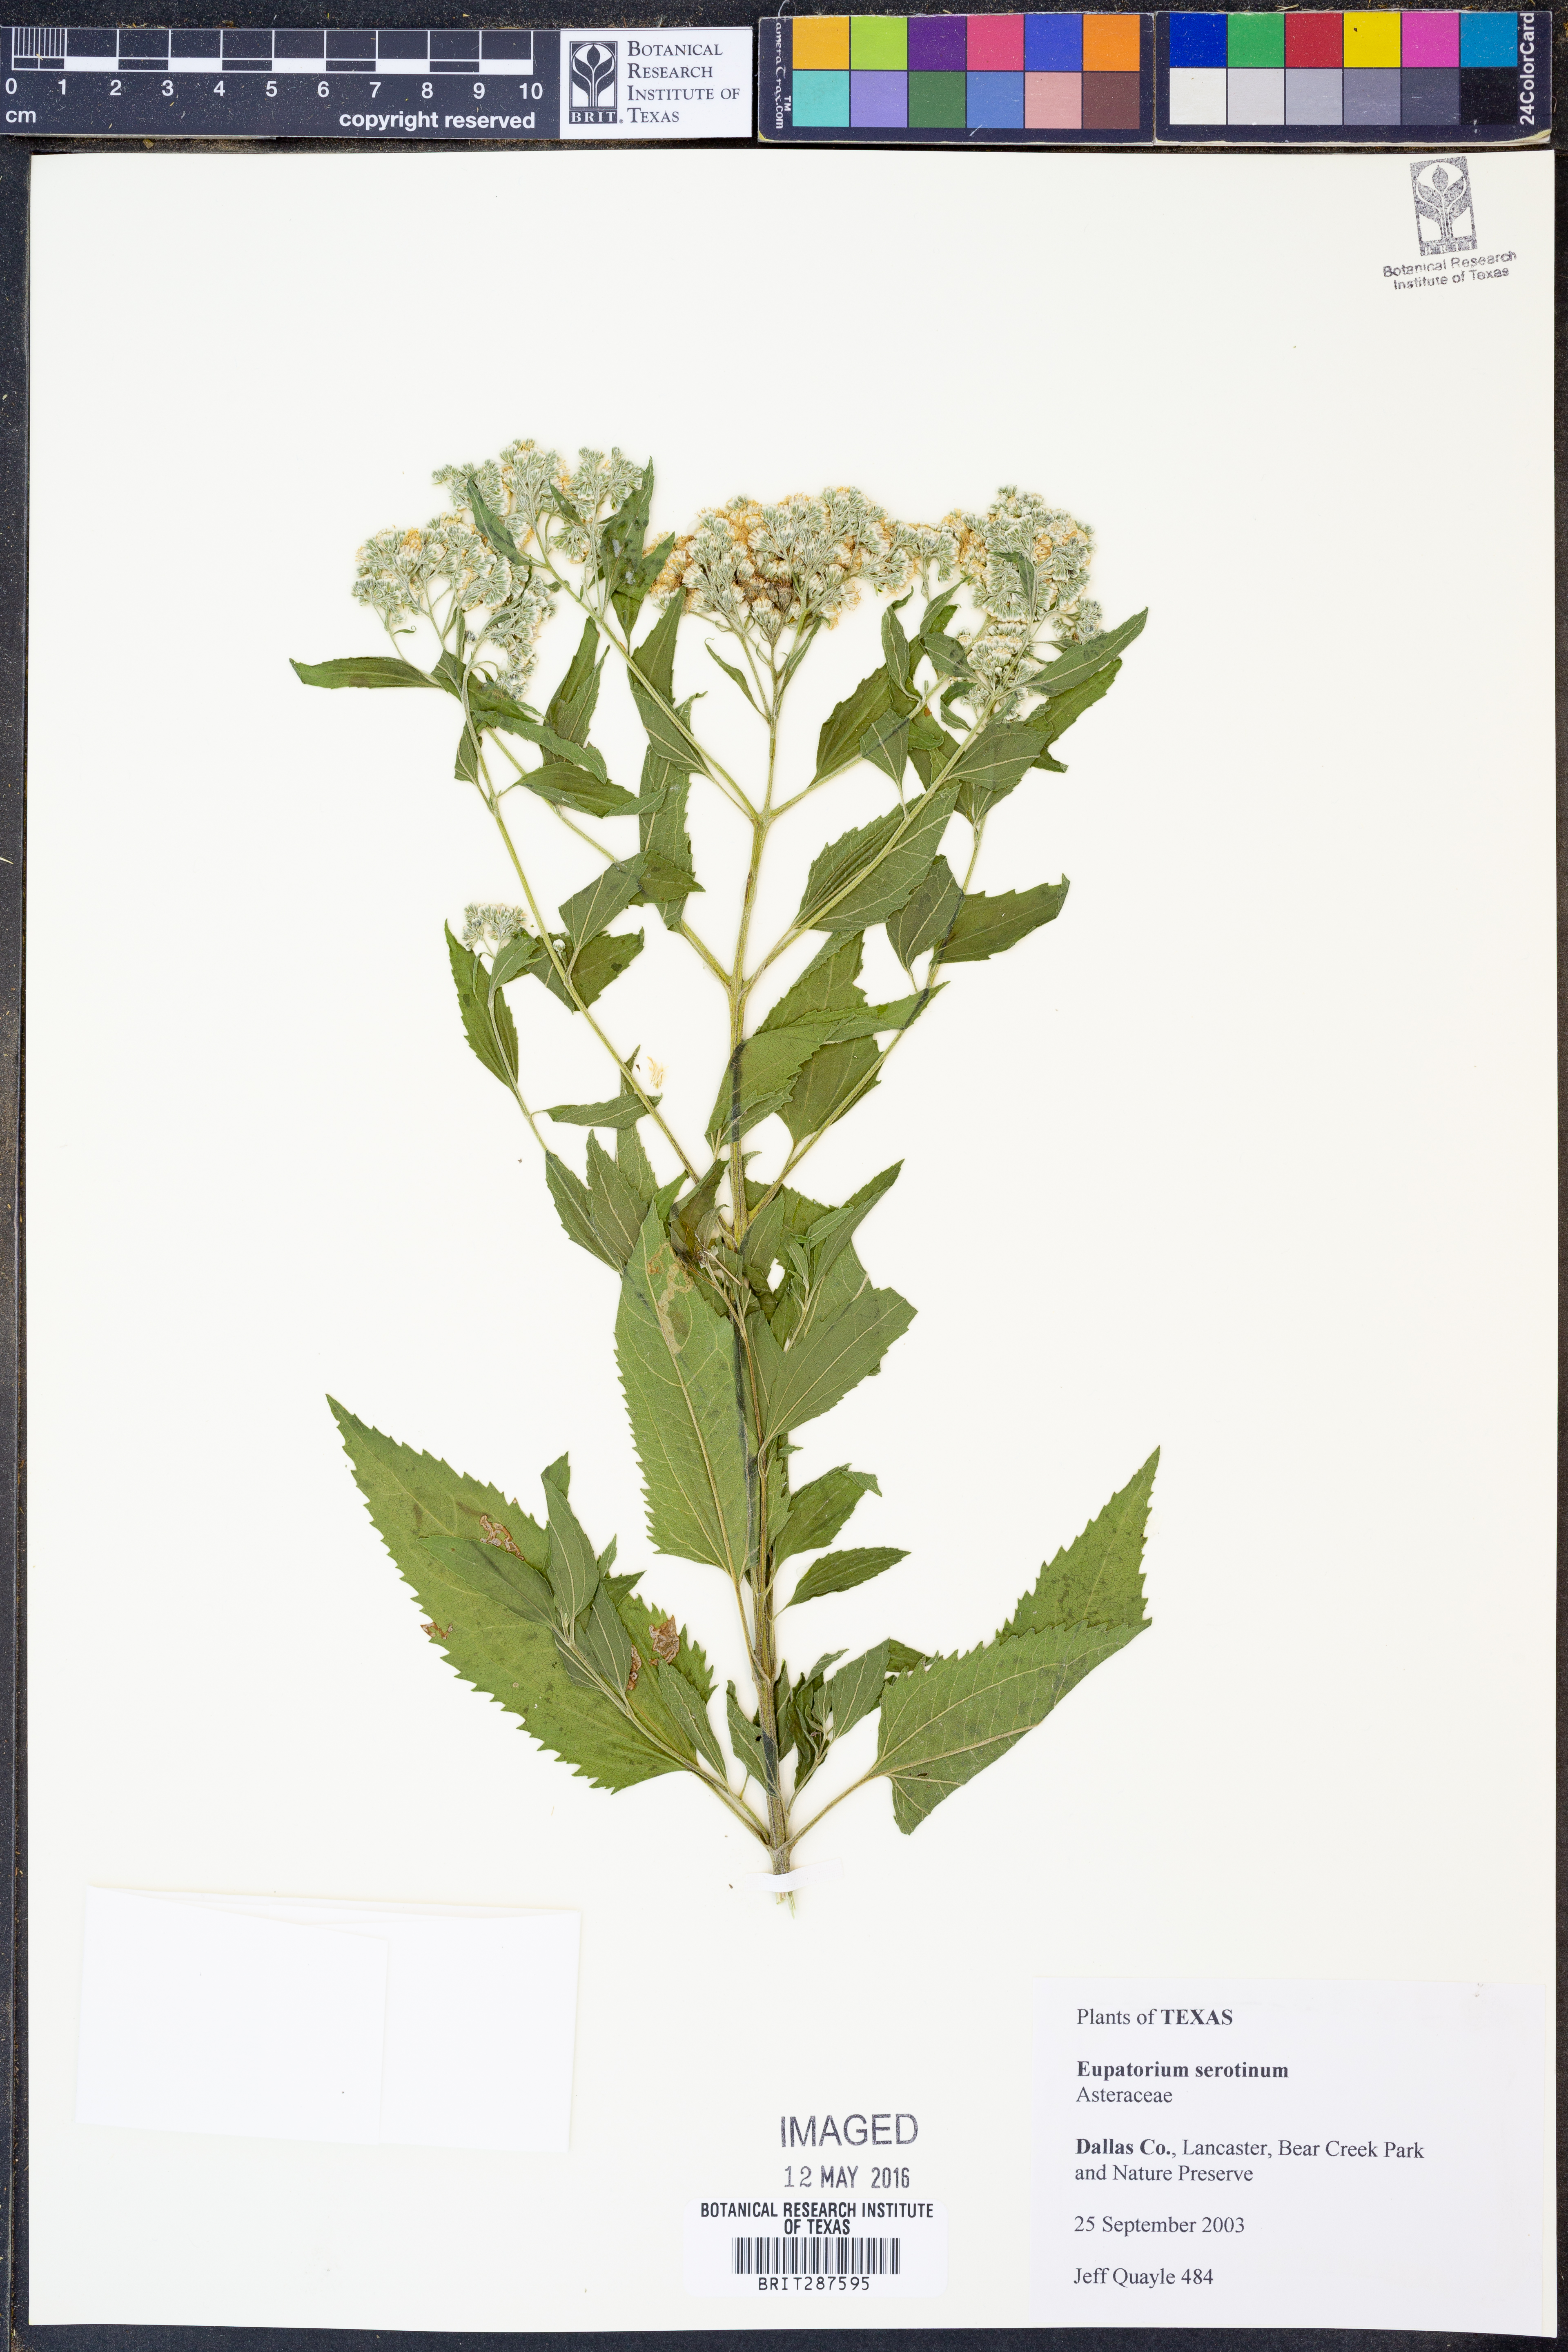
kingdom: Plantae
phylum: Tracheophyta
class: Magnoliopsida
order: Asterales
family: Asteraceae
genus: Eupatorium
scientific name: Eupatorium serotinum
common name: Late boneset
